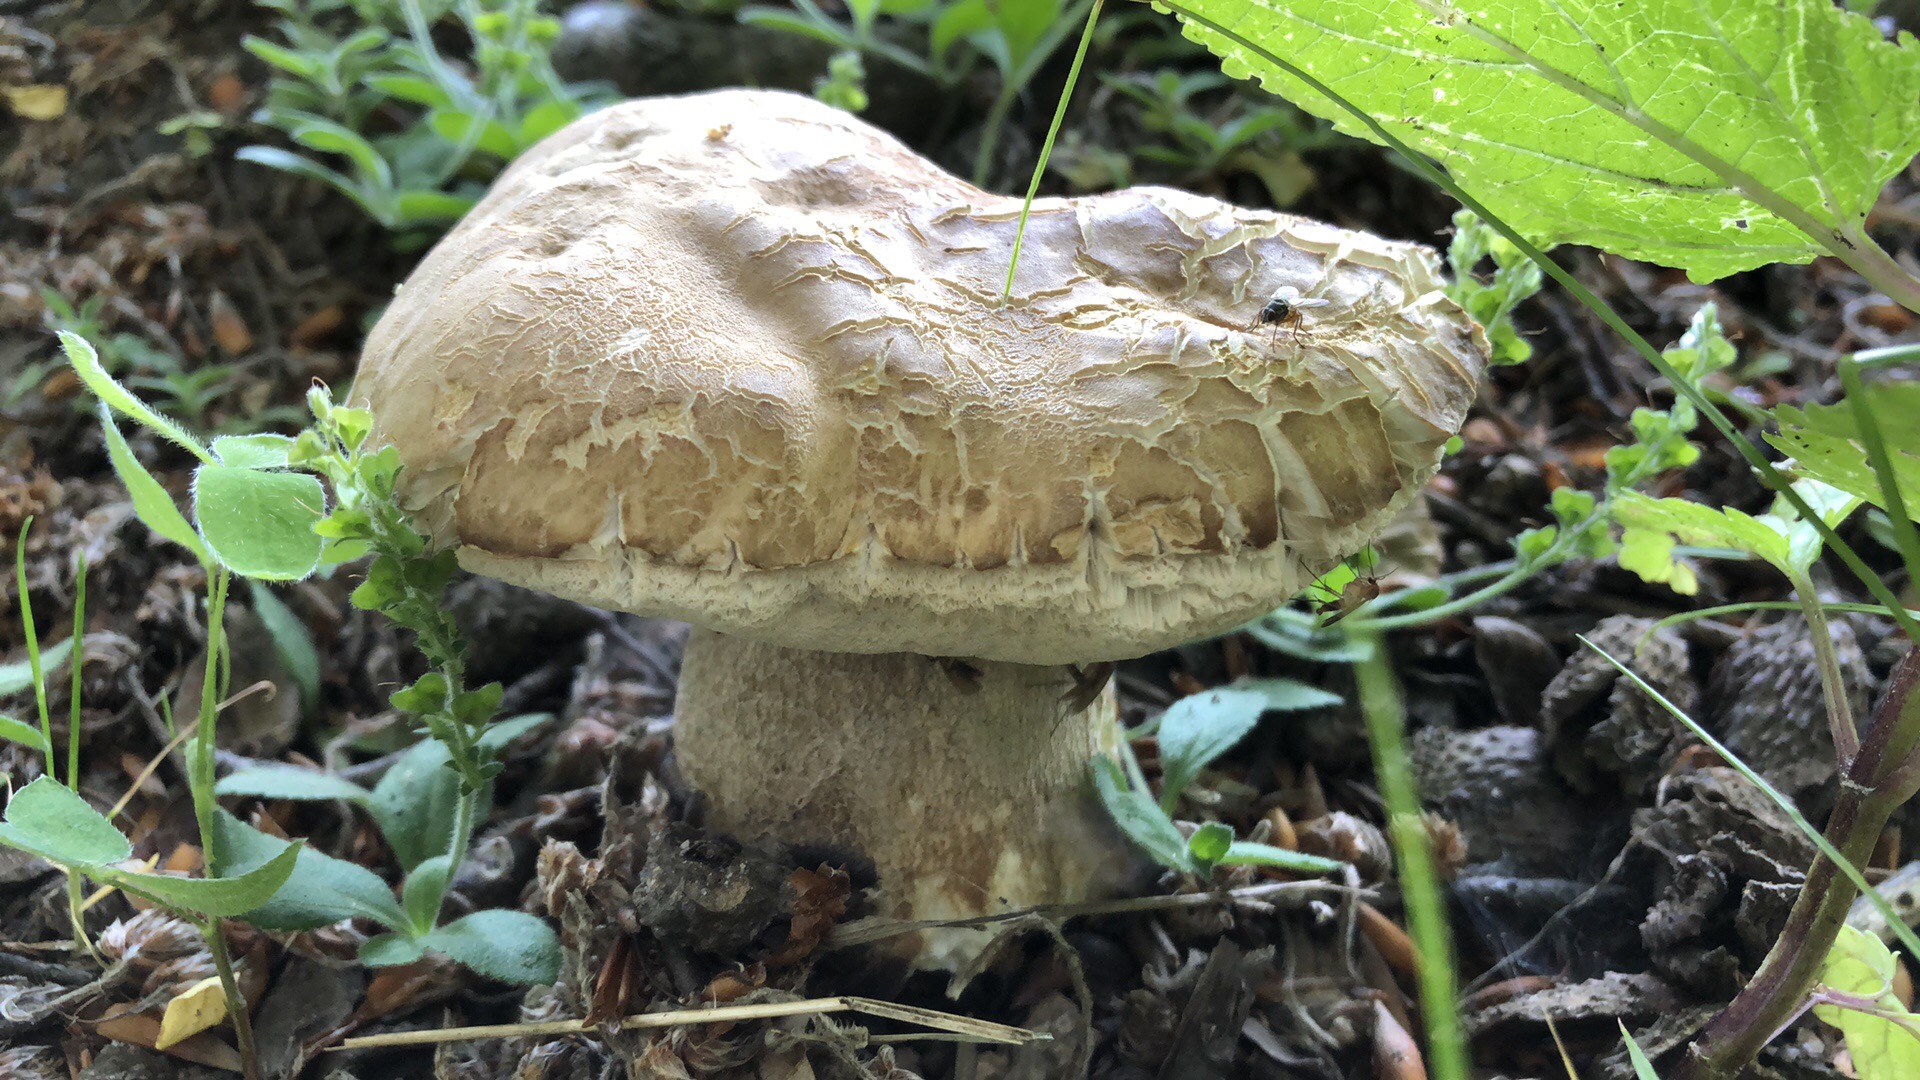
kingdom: Fungi
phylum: Basidiomycota
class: Agaricomycetes
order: Boletales
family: Boletaceae
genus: Boletus
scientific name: Boletus reticulatus
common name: sommer-rørhat
